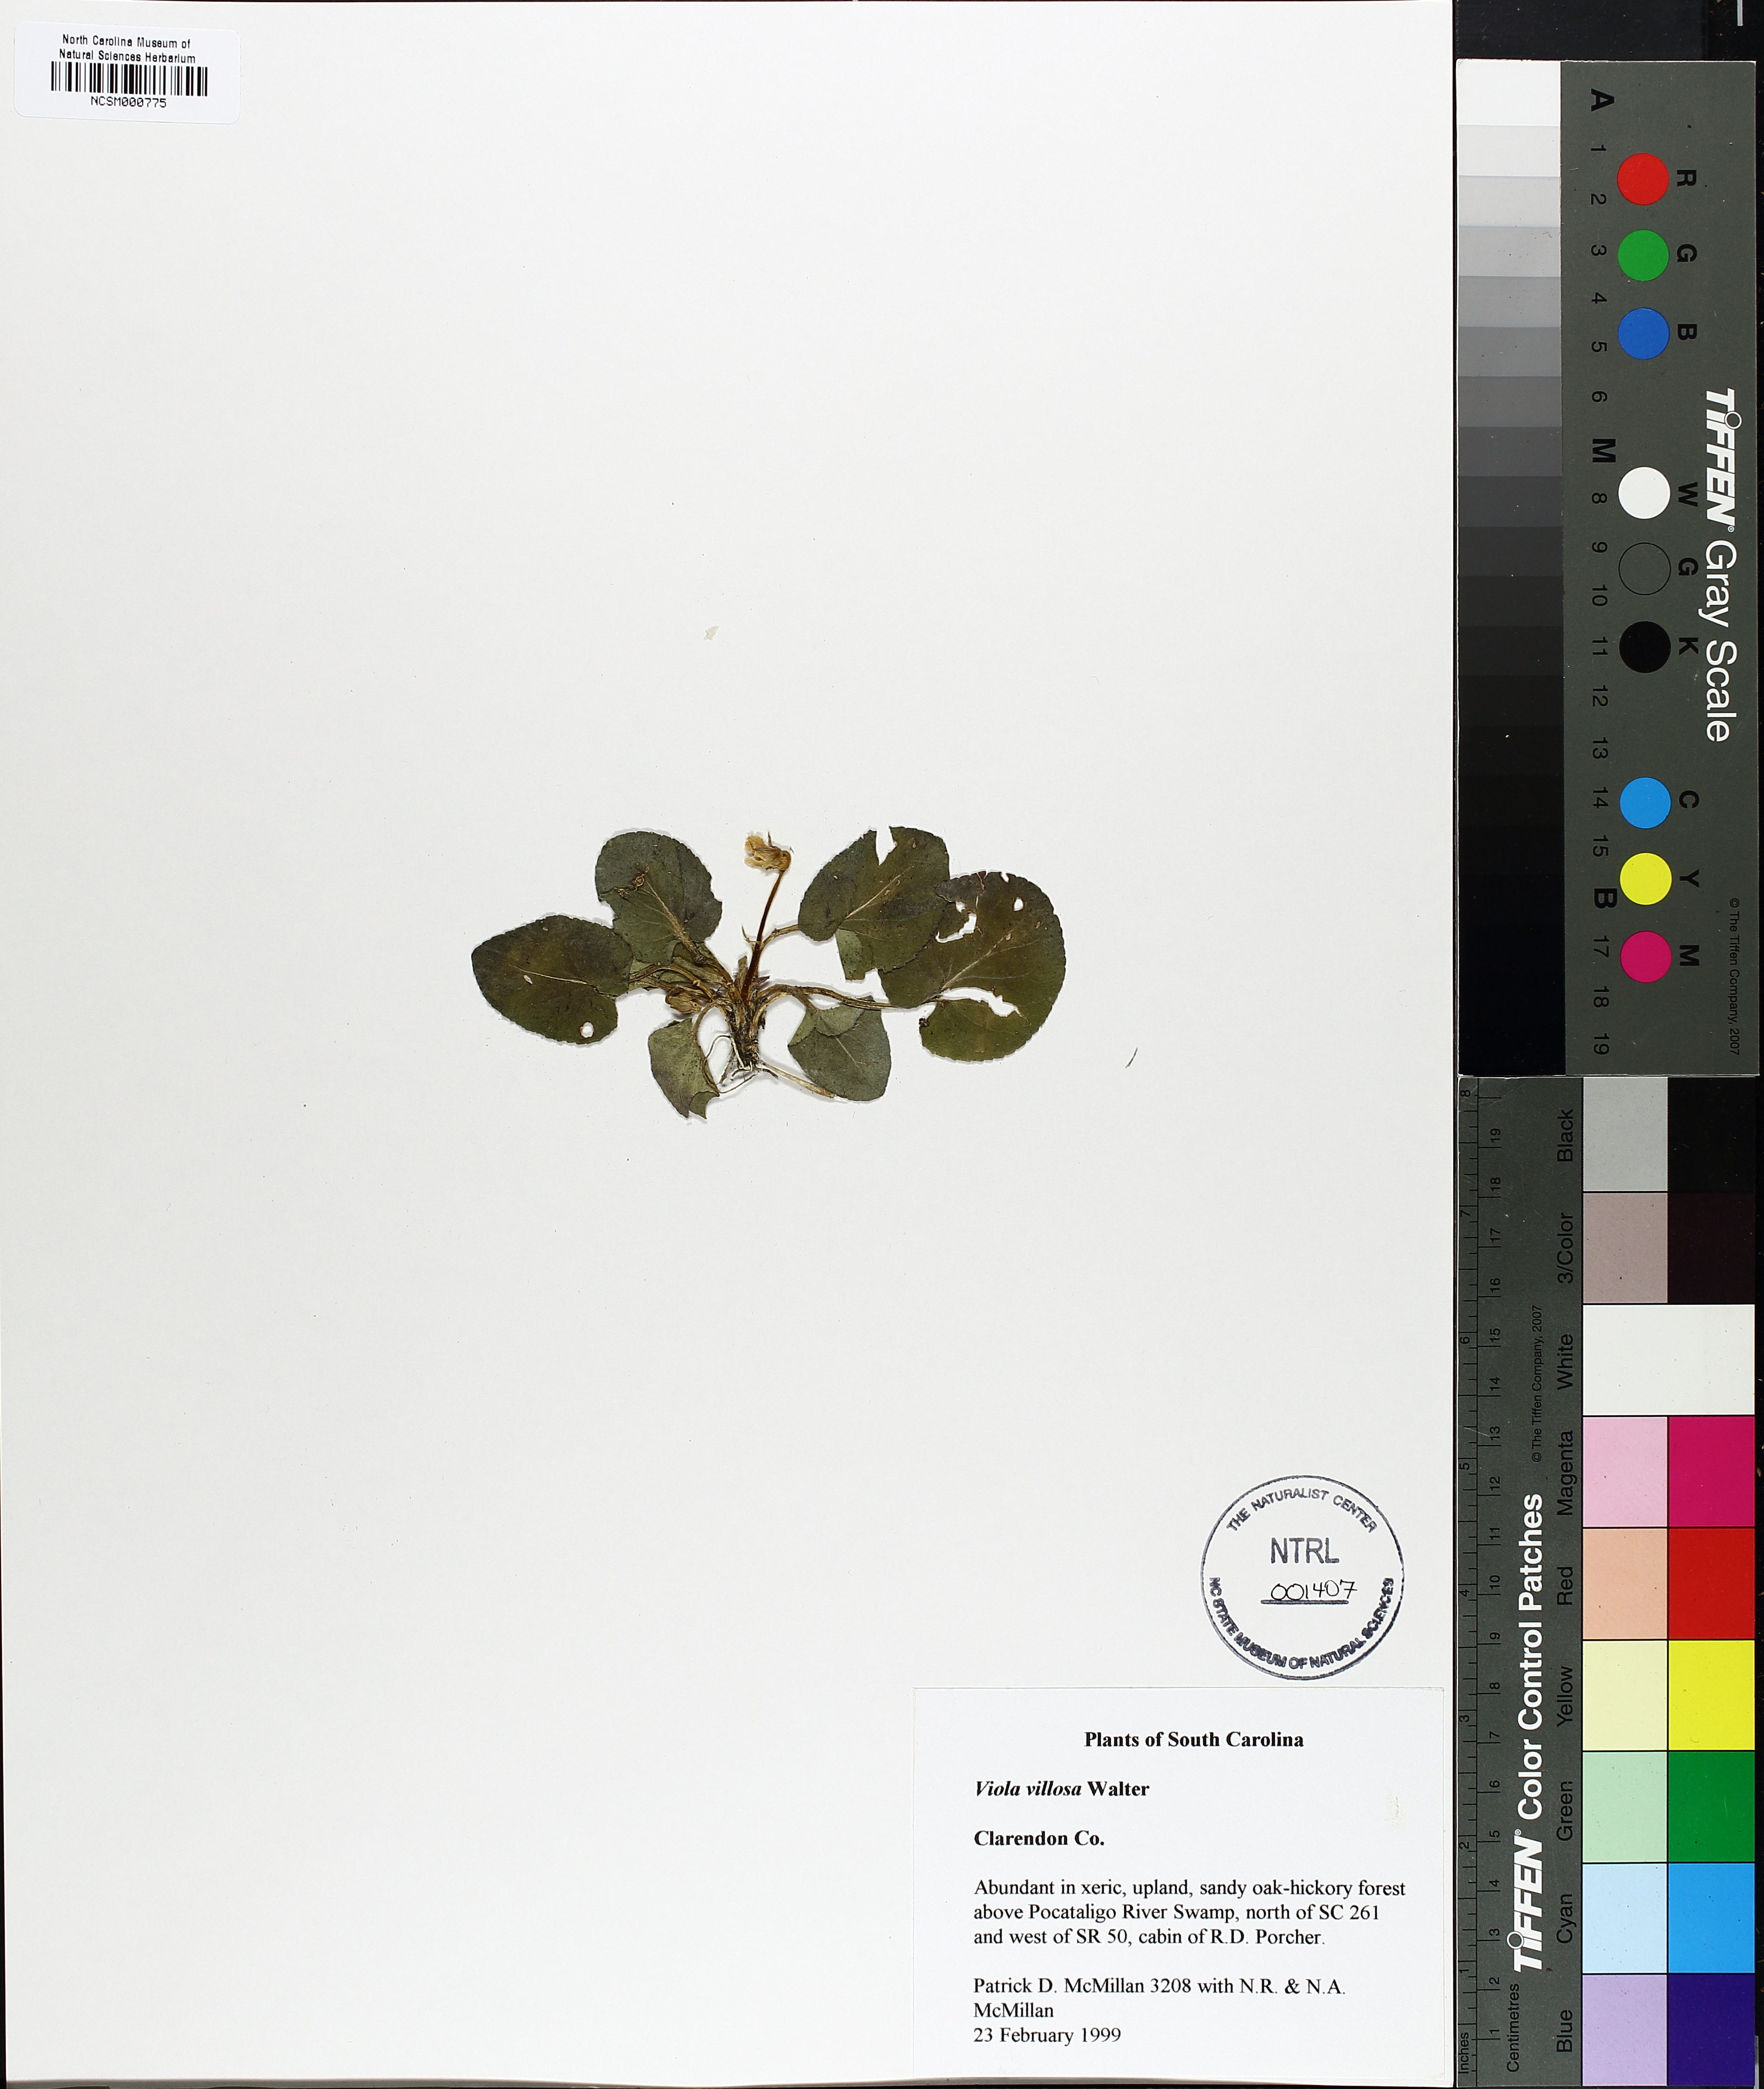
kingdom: Plantae
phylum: Tracheophyta
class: Magnoliopsida
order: Malpighiales
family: Violaceae
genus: Viola
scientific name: Viola villosa
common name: Carolina violet
